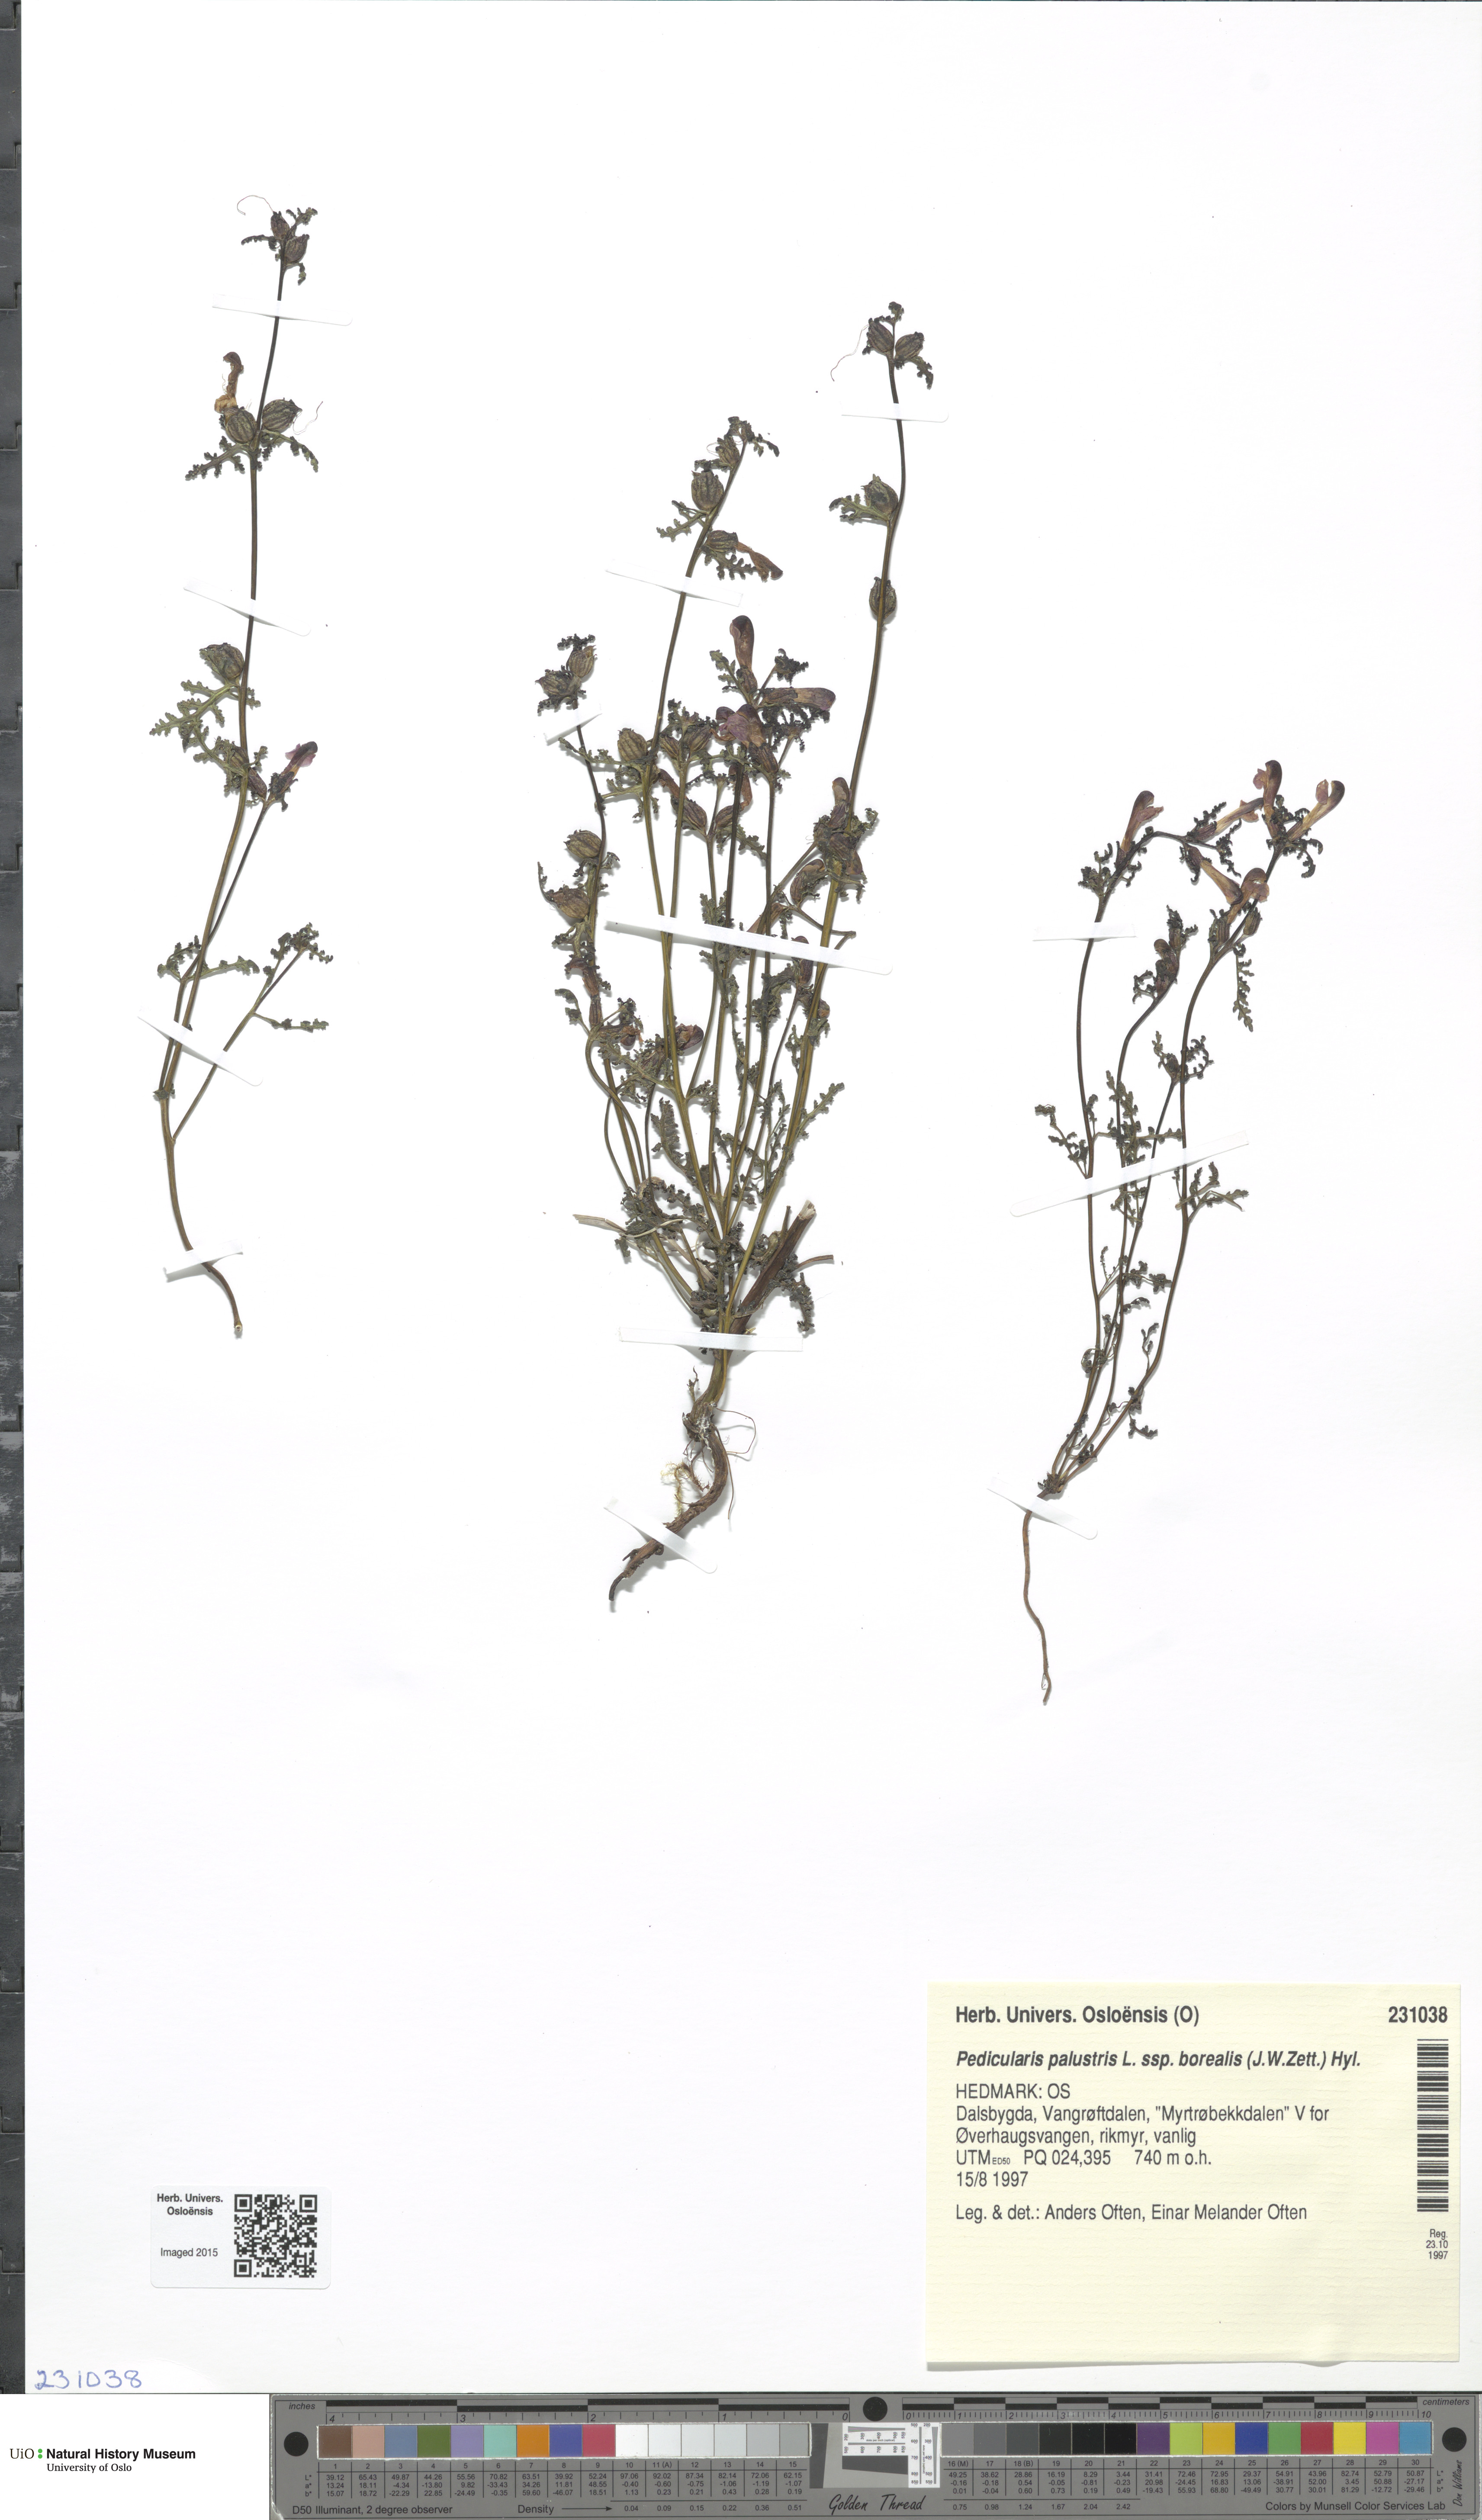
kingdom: Plantae
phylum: Tracheophyta
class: Magnoliopsida
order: Lamiales
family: Orobanchaceae
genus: Pedicularis
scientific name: Pedicularis palustris
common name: Marsh lousewort
